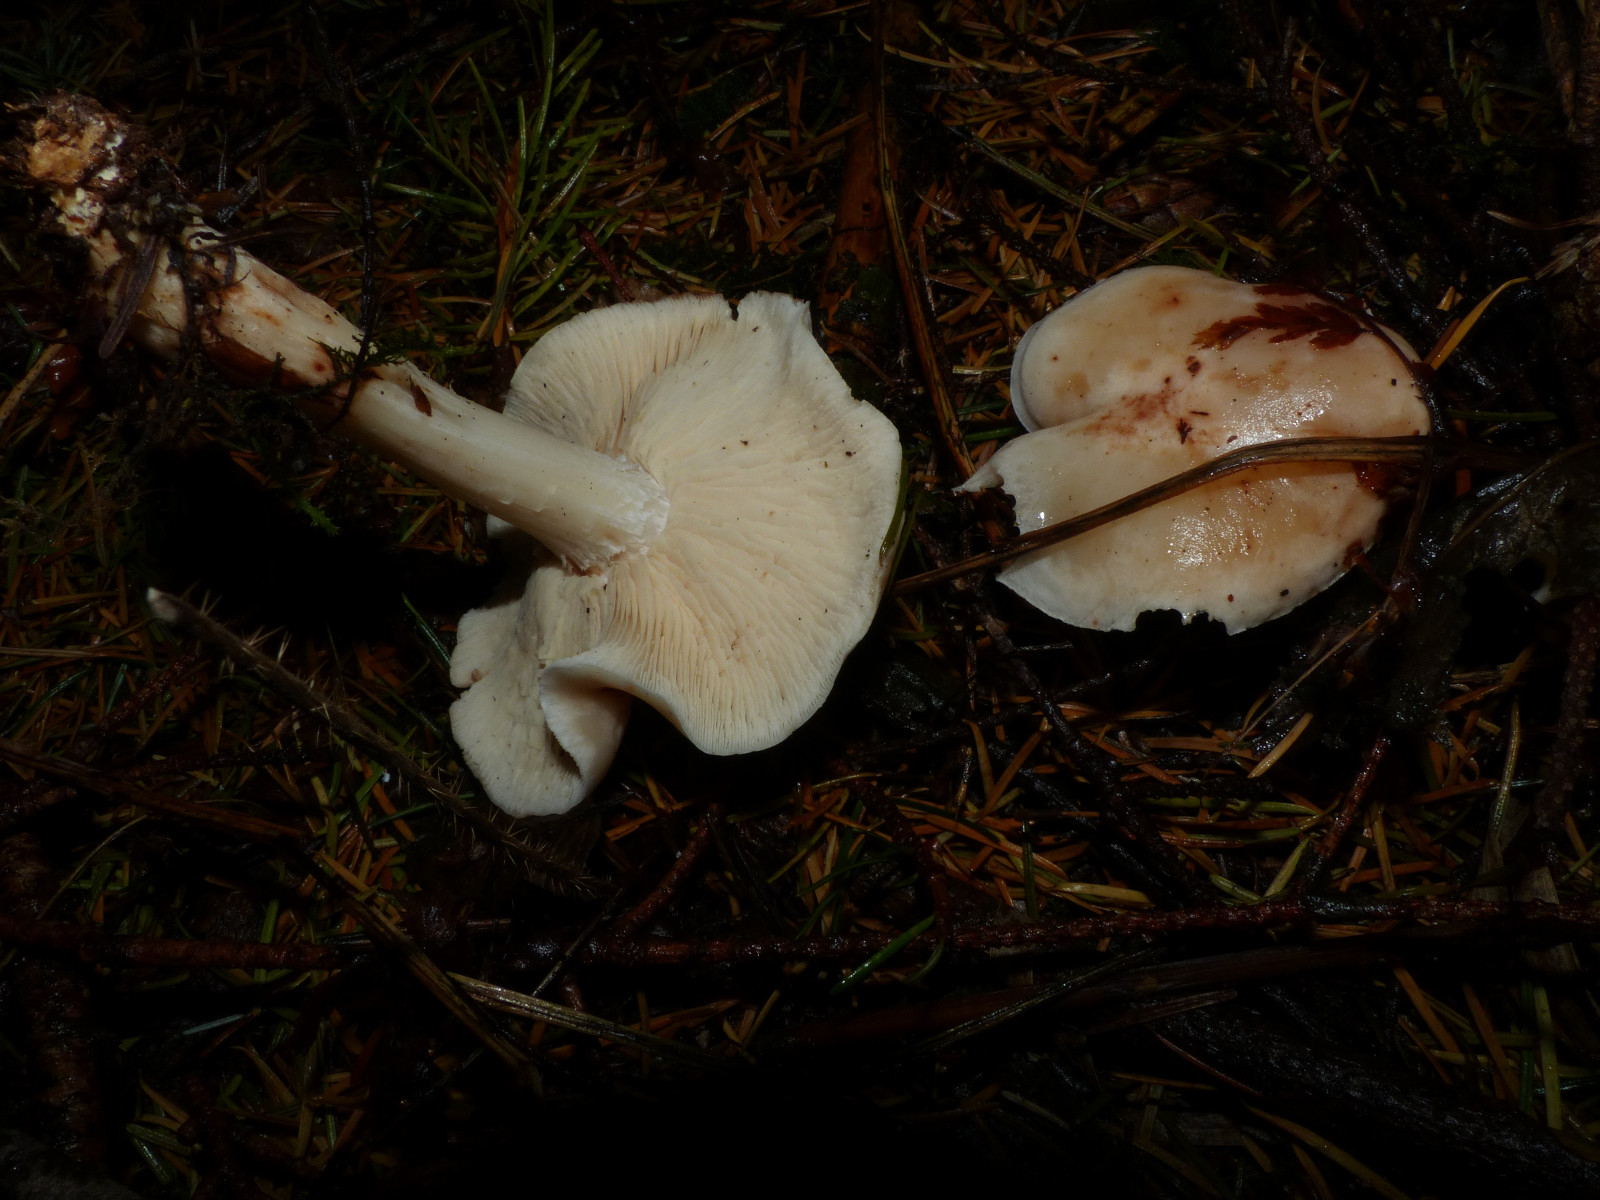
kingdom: Fungi
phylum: Basidiomycota
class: Agaricomycetes
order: Agaricales
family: Omphalotaceae
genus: Rhodocollybia
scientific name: Rhodocollybia maculata
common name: plettet fladhat
